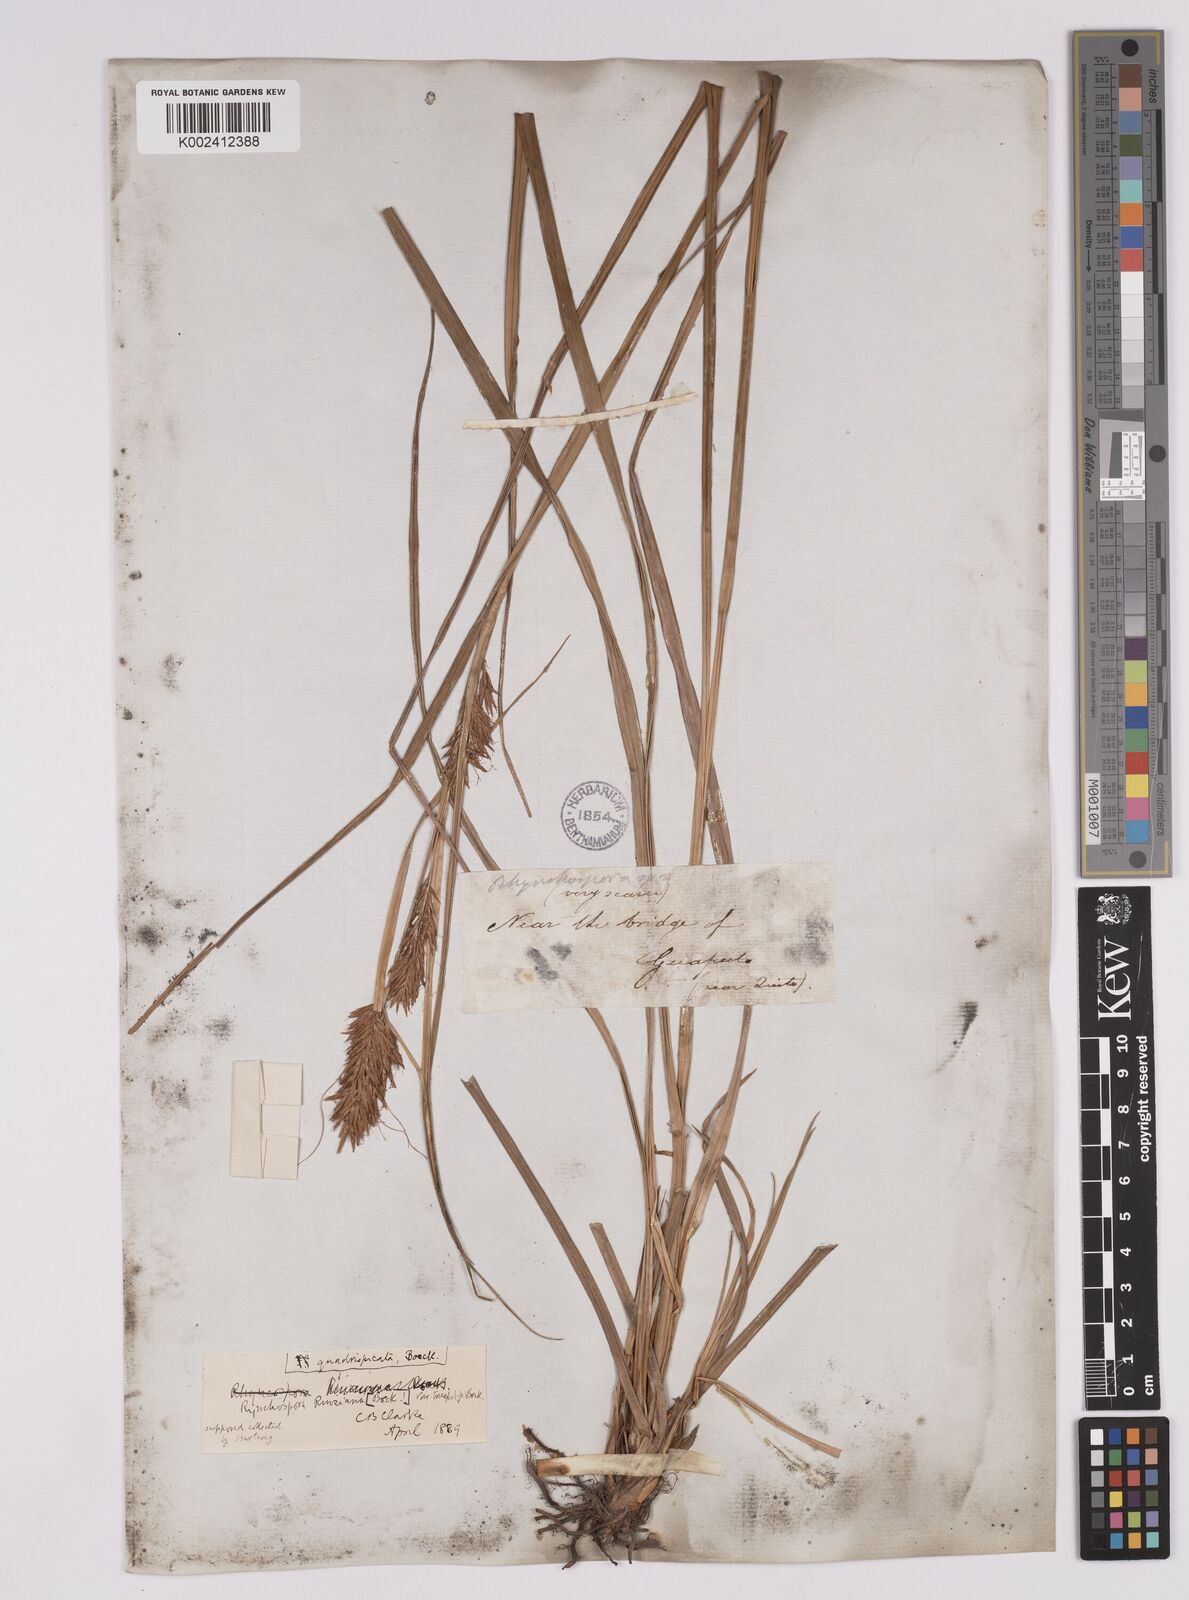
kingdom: Plantae
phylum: Tracheophyta
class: Liliopsida
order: Poales
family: Cyperaceae
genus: Rhynchospora
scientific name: Rhynchospora ruiziana
